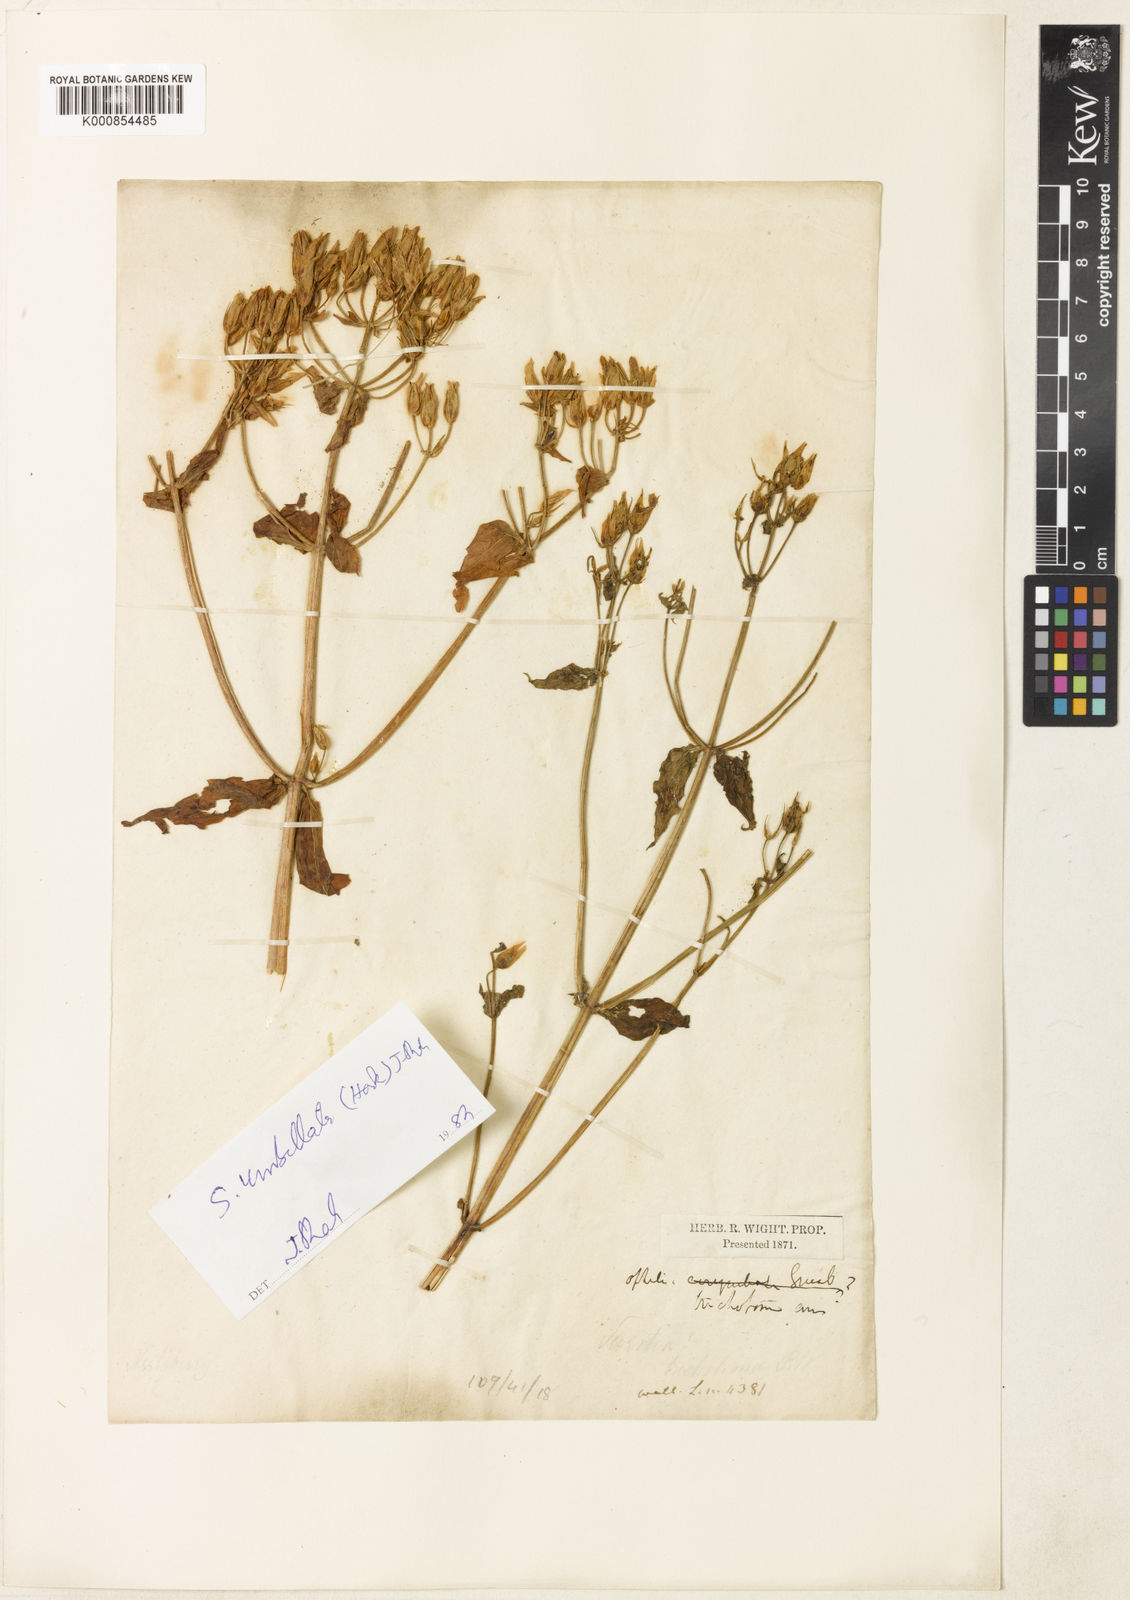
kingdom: Plantae
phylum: Tracheophyta
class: Magnoliopsida
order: Gentianales
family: Gentianaceae
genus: Swertia
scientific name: Swertia
